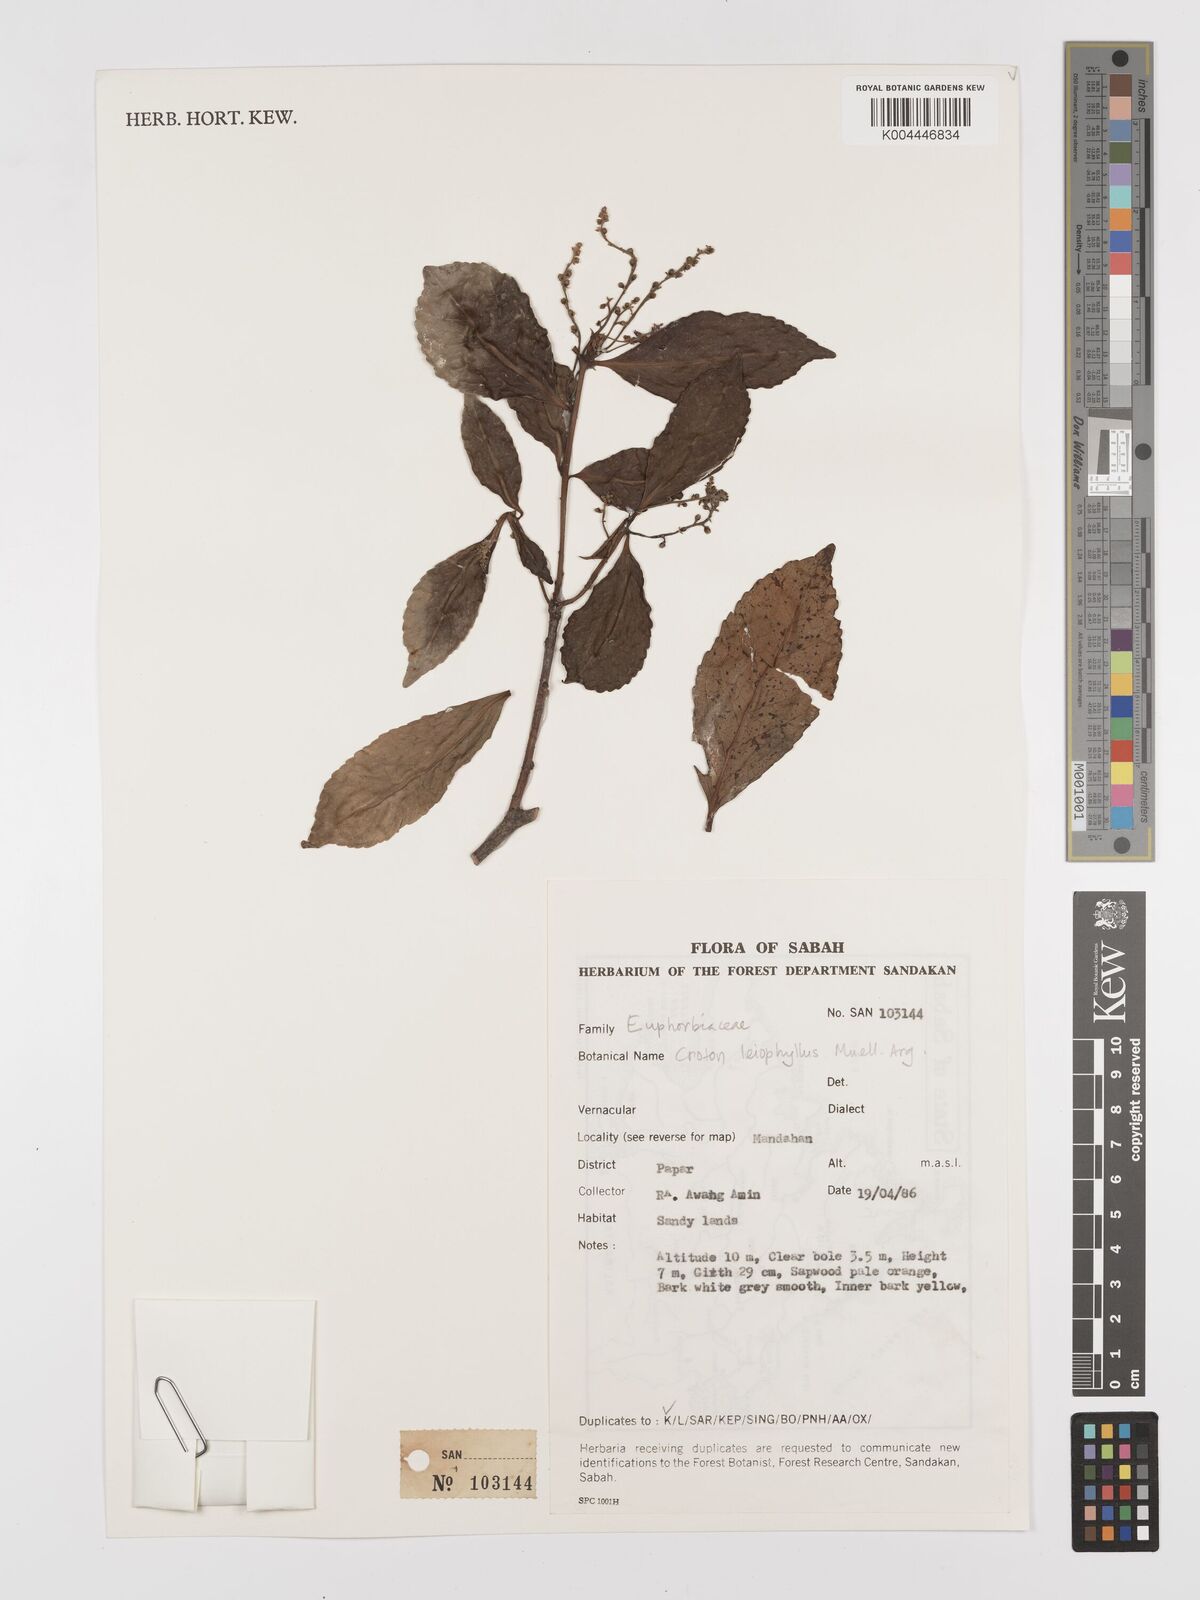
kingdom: Plantae
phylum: Tracheophyta
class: Magnoliopsida
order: Malpighiales
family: Euphorbiaceae
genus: Croton
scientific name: Croton leiophyllus
